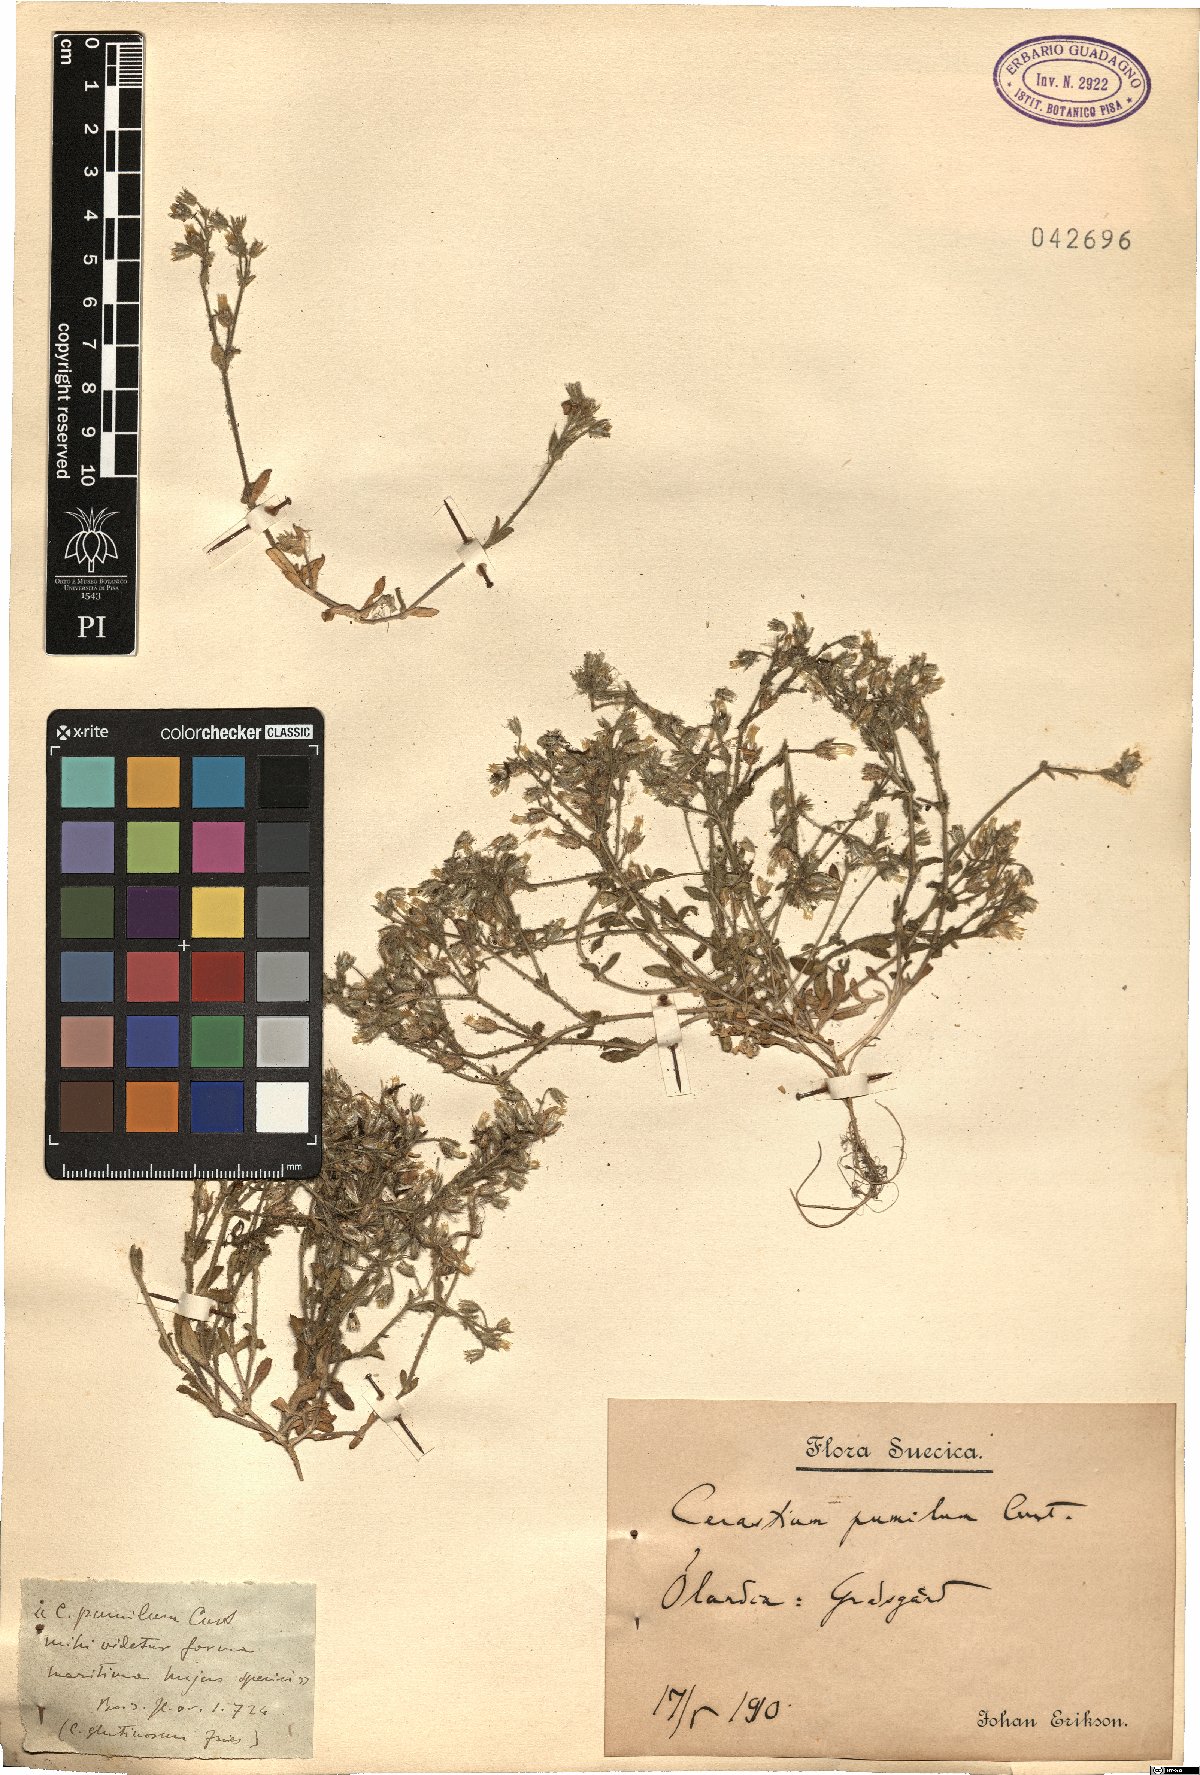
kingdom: Plantae
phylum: Tracheophyta
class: Magnoliopsida
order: Caryophyllales
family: Caryophyllaceae
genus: Cerastium
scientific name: Cerastium pumilum
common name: Dwarf mouse-ear
